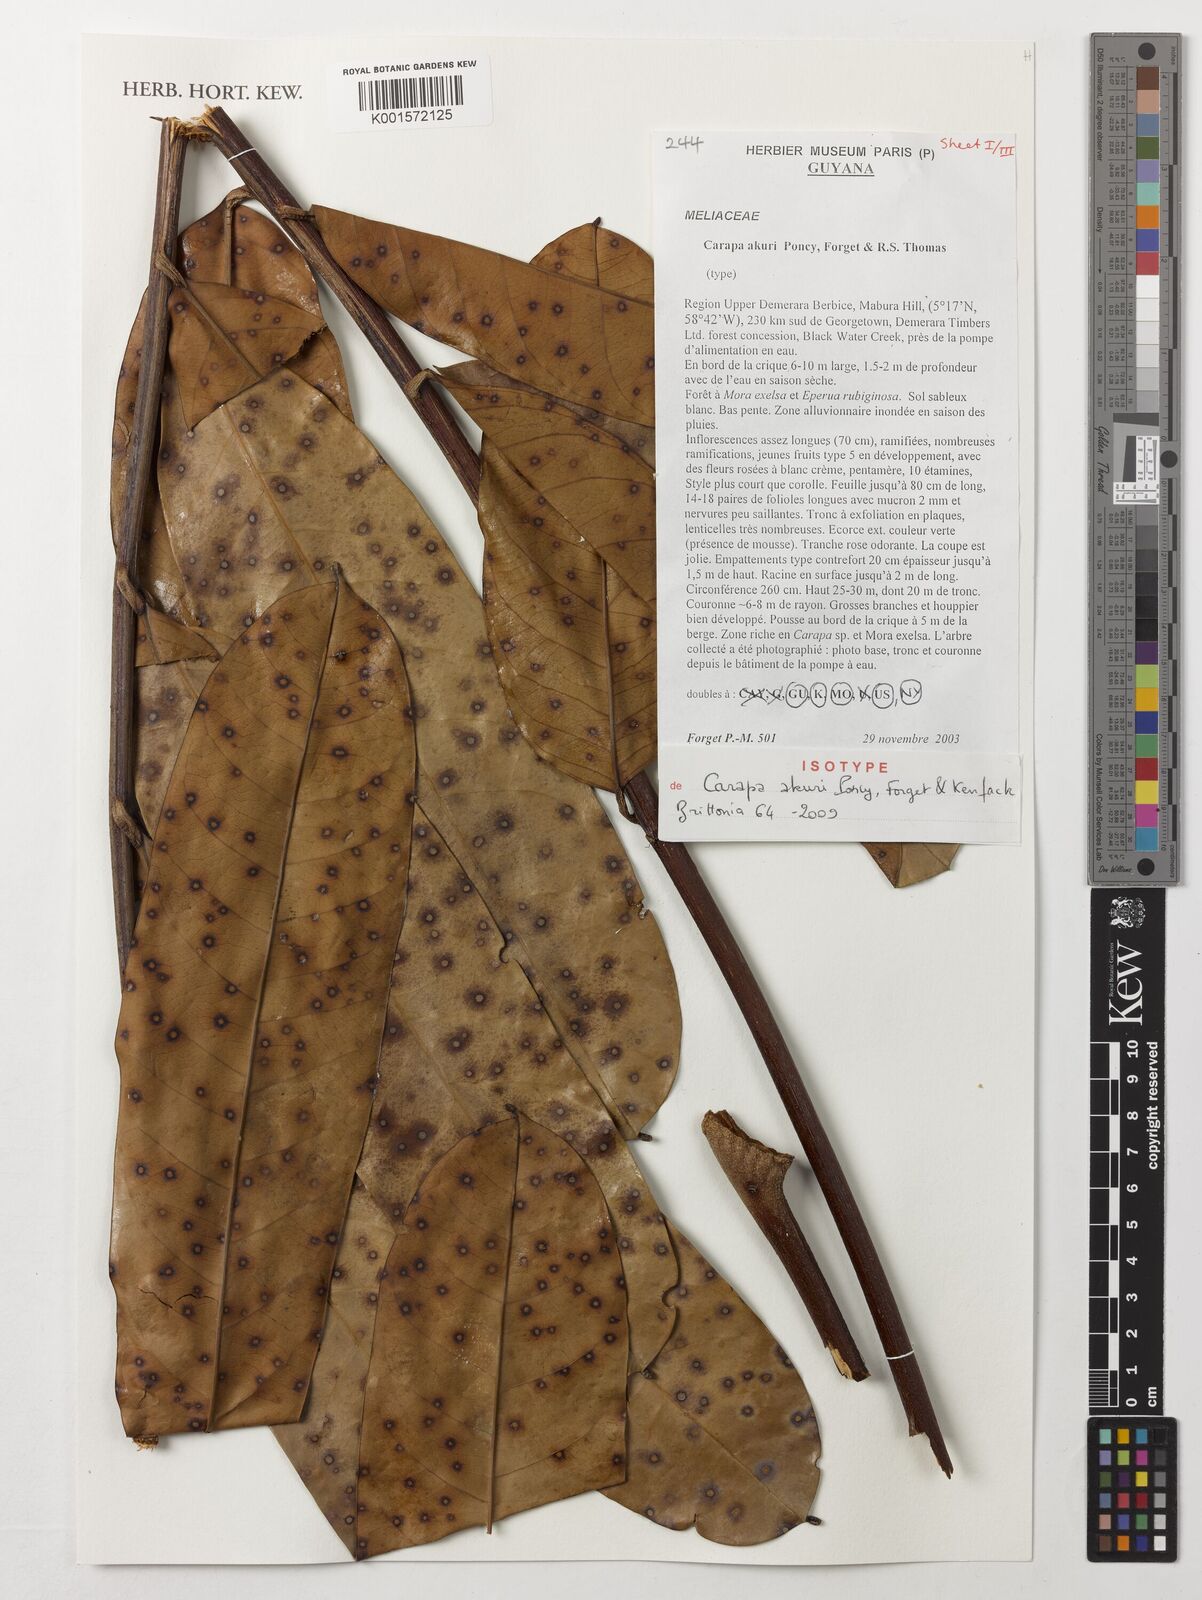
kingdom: Plantae
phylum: Tracheophyta
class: Magnoliopsida
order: Sapindales
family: Meliaceae
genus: Carapa
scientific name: Carapa akuri
